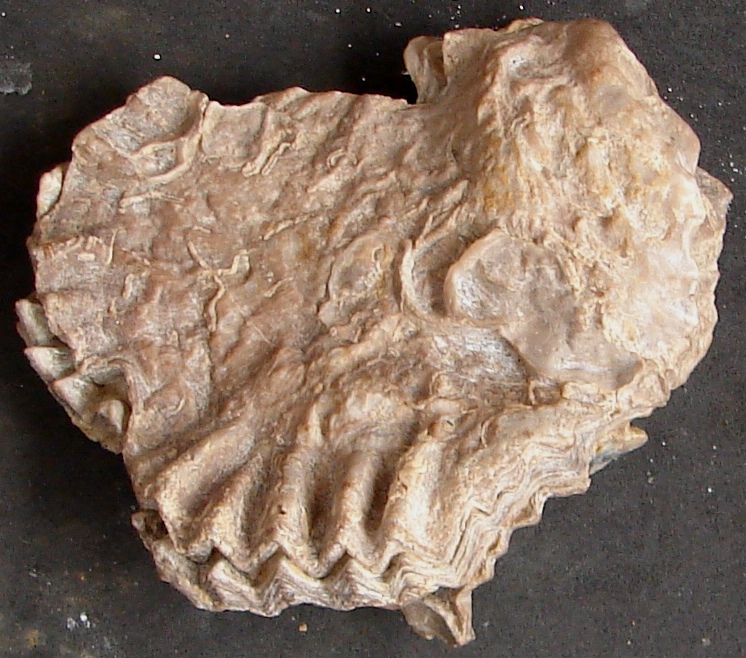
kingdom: Animalia
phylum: Mollusca
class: Bivalvia
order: Ostreida
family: Ostreidae
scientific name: Ostreidae
